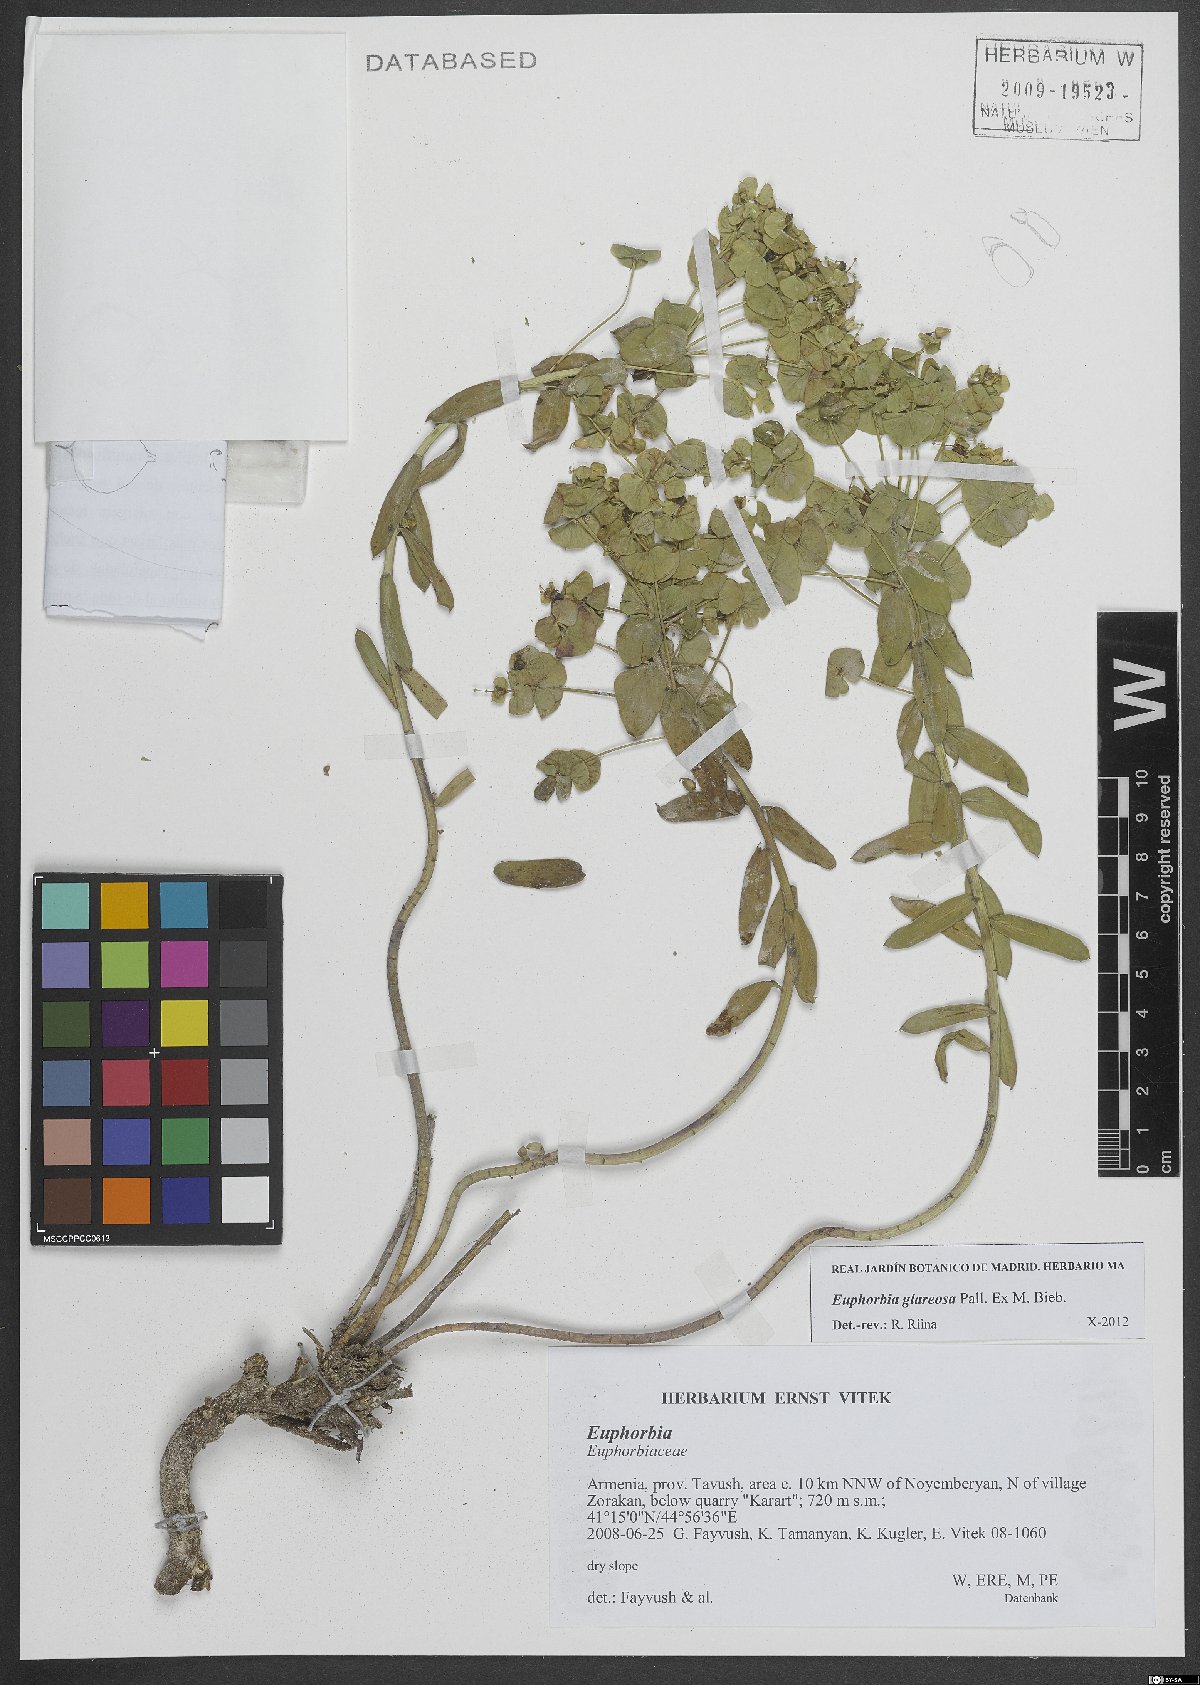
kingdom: Plantae
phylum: Tracheophyta
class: Magnoliopsida
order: Malpighiales
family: Euphorbiaceae
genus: Euphorbia
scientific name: Euphorbia glareosa
